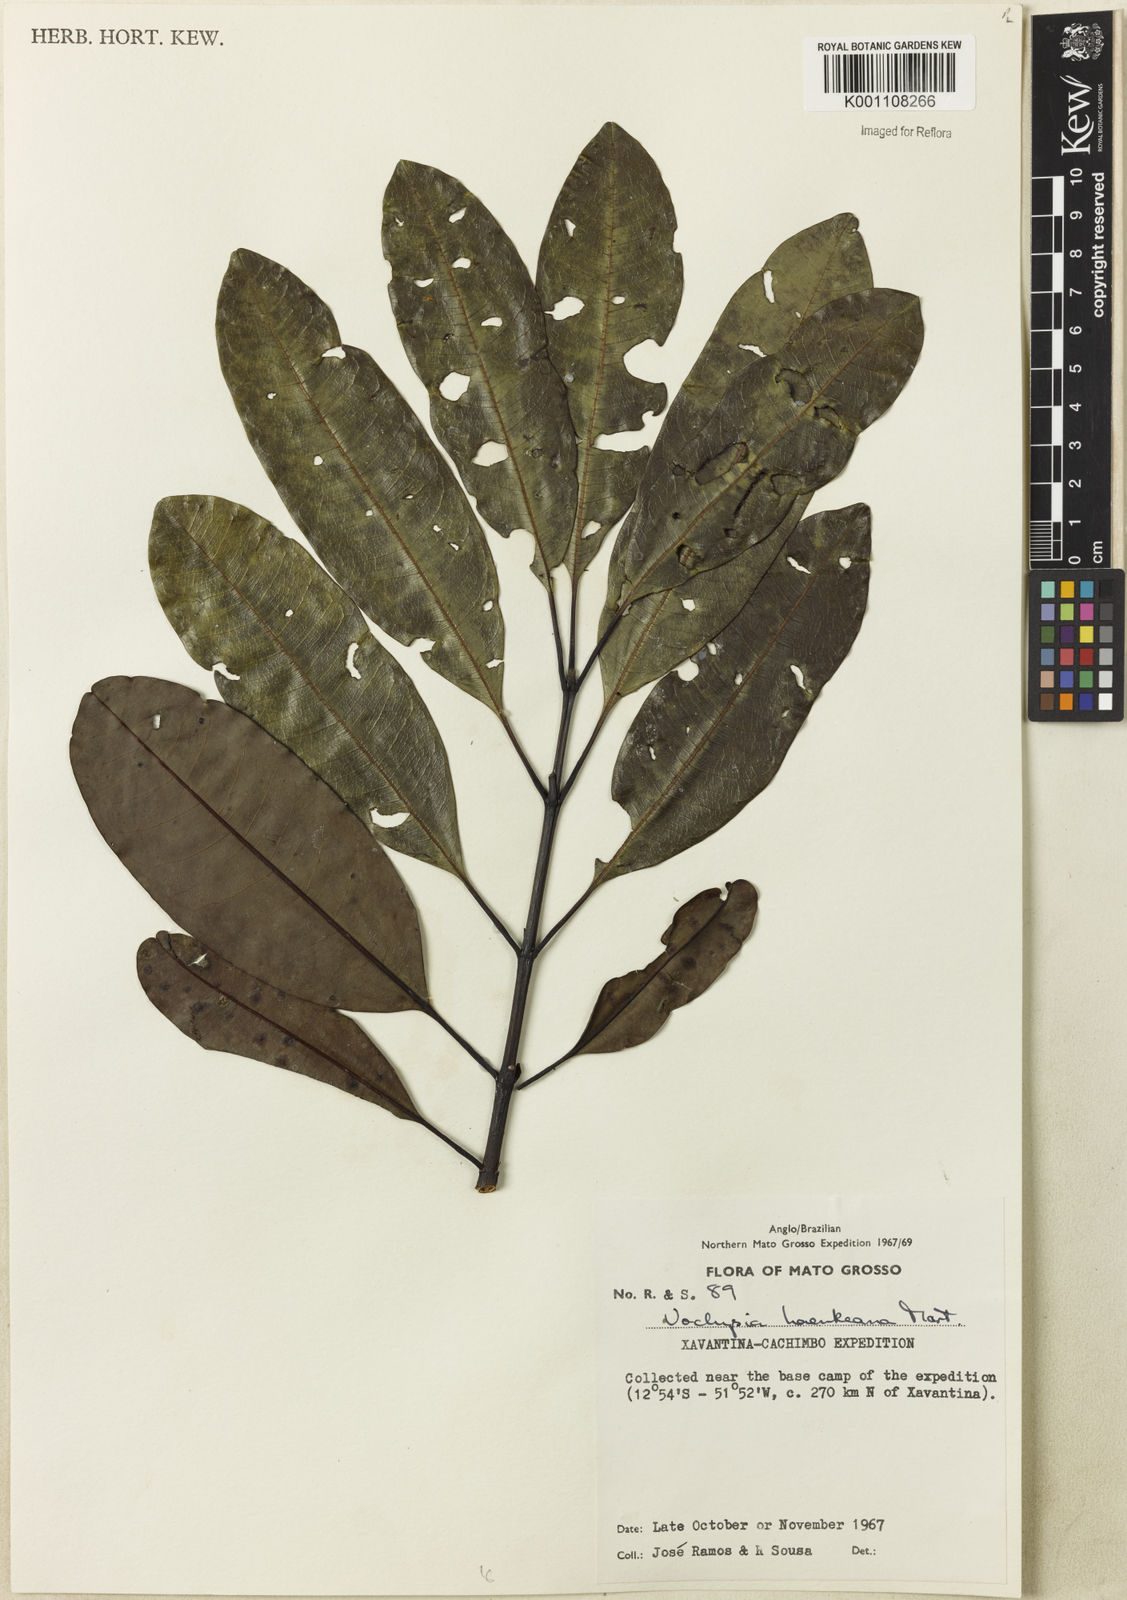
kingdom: Plantae
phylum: Tracheophyta
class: Magnoliopsida
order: Myrtales
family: Vochysiaceae
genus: Vochysia
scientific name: Vochysia haenkeana
